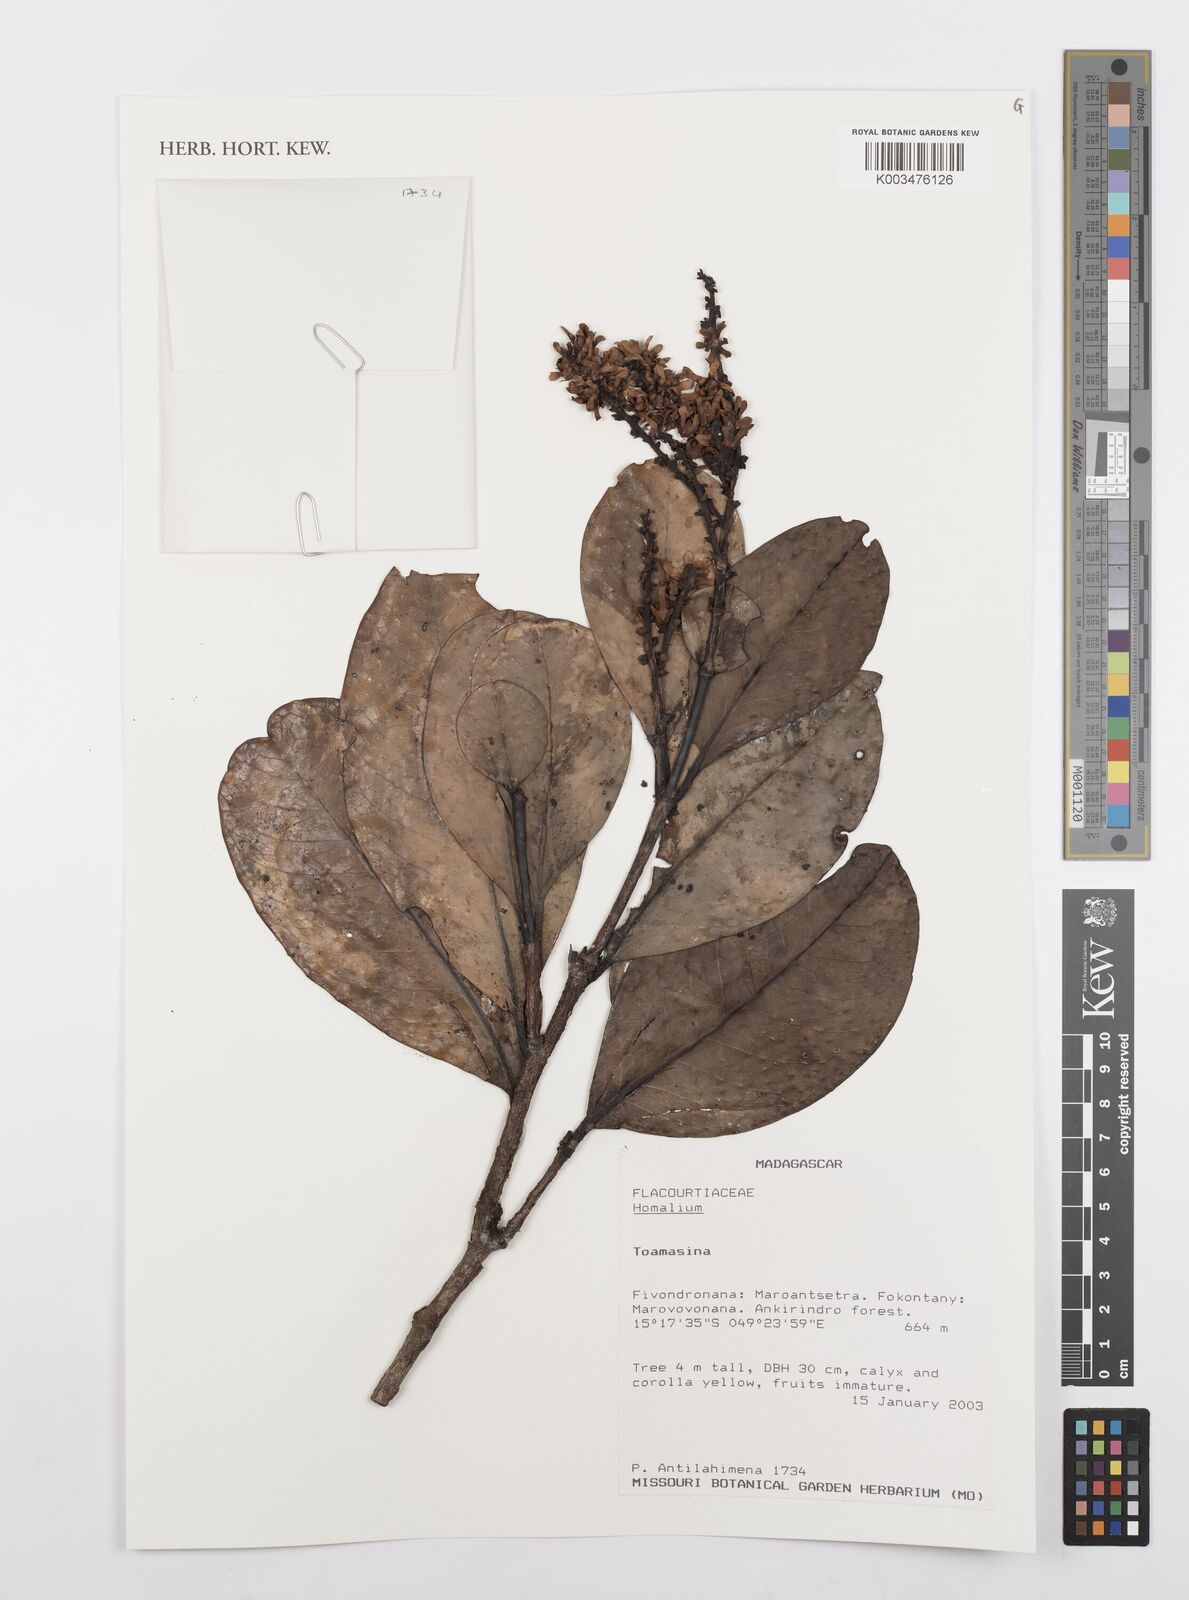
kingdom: Plantae
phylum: Tracheophyta
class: Magnoliopsida
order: Malpighiales
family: Salicaceae
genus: Homalium
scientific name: Homalium
